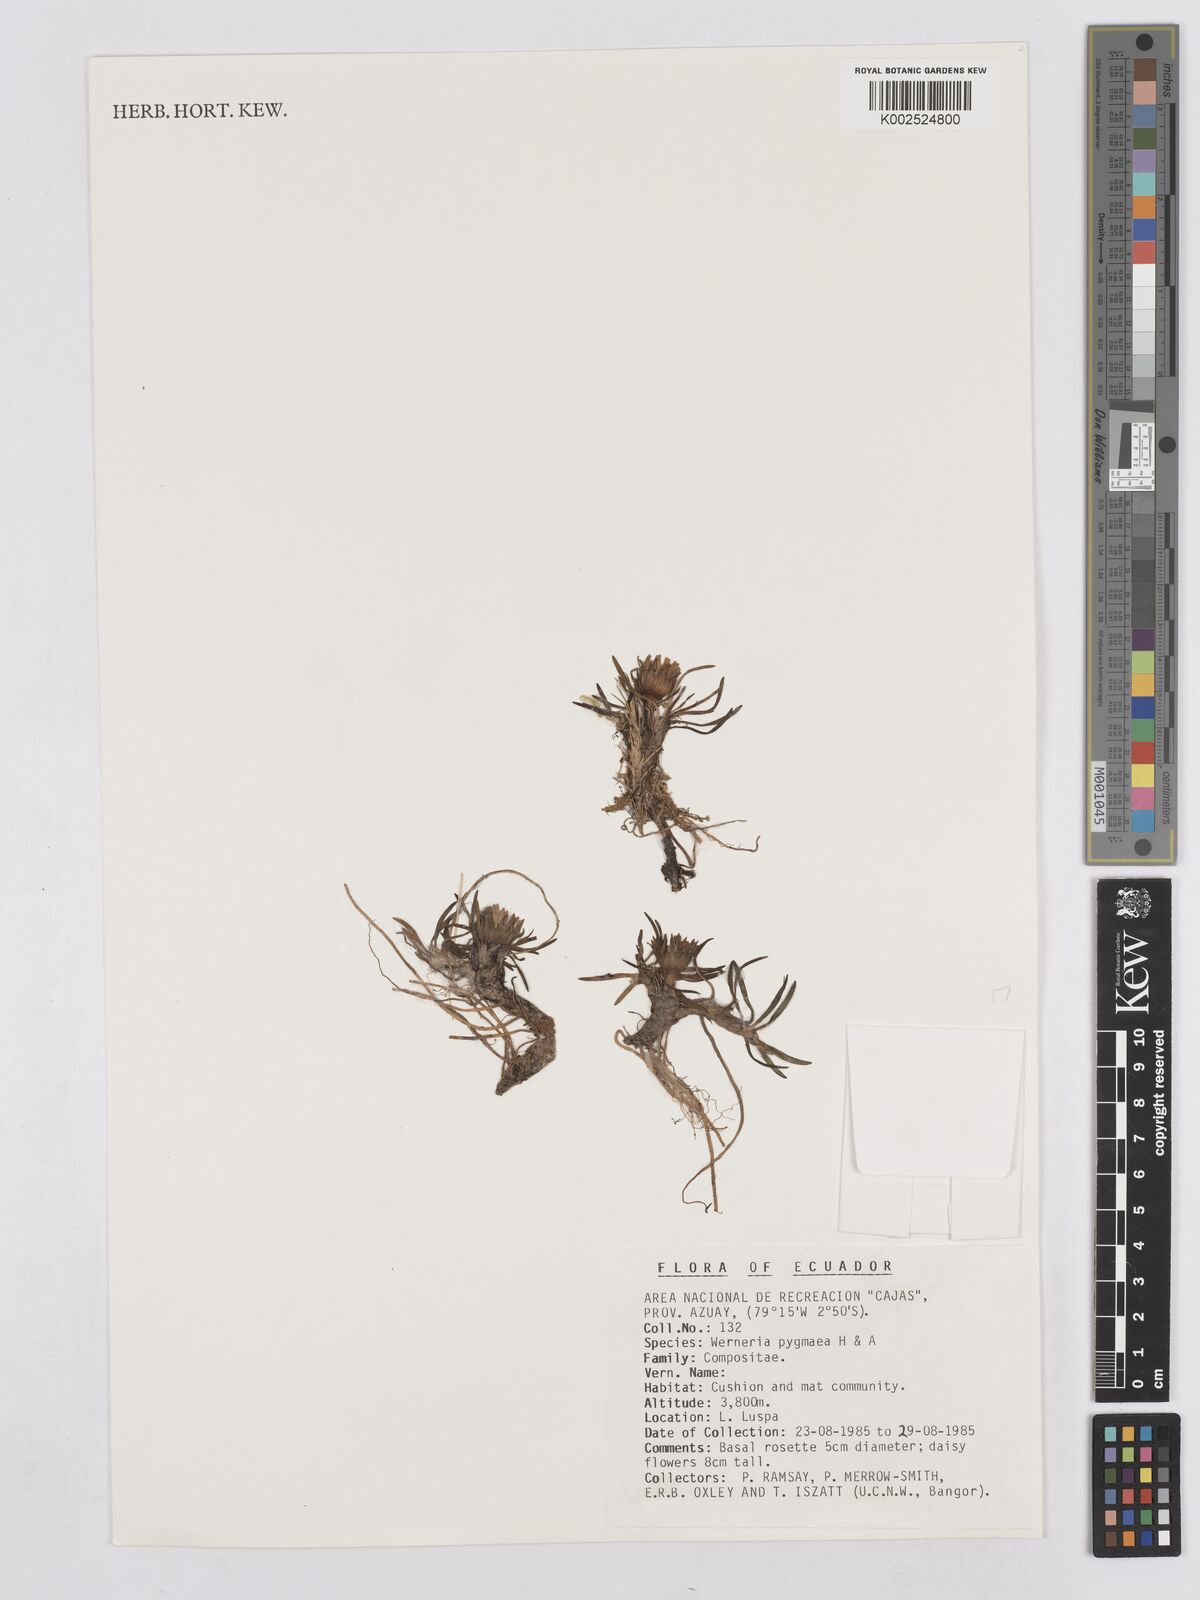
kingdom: Plantae
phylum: Tracheophyta
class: Magnoliopsida
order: Asterales
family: Asteraceae
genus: Rockhausenia
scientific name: Rockhausenia pygmaea
